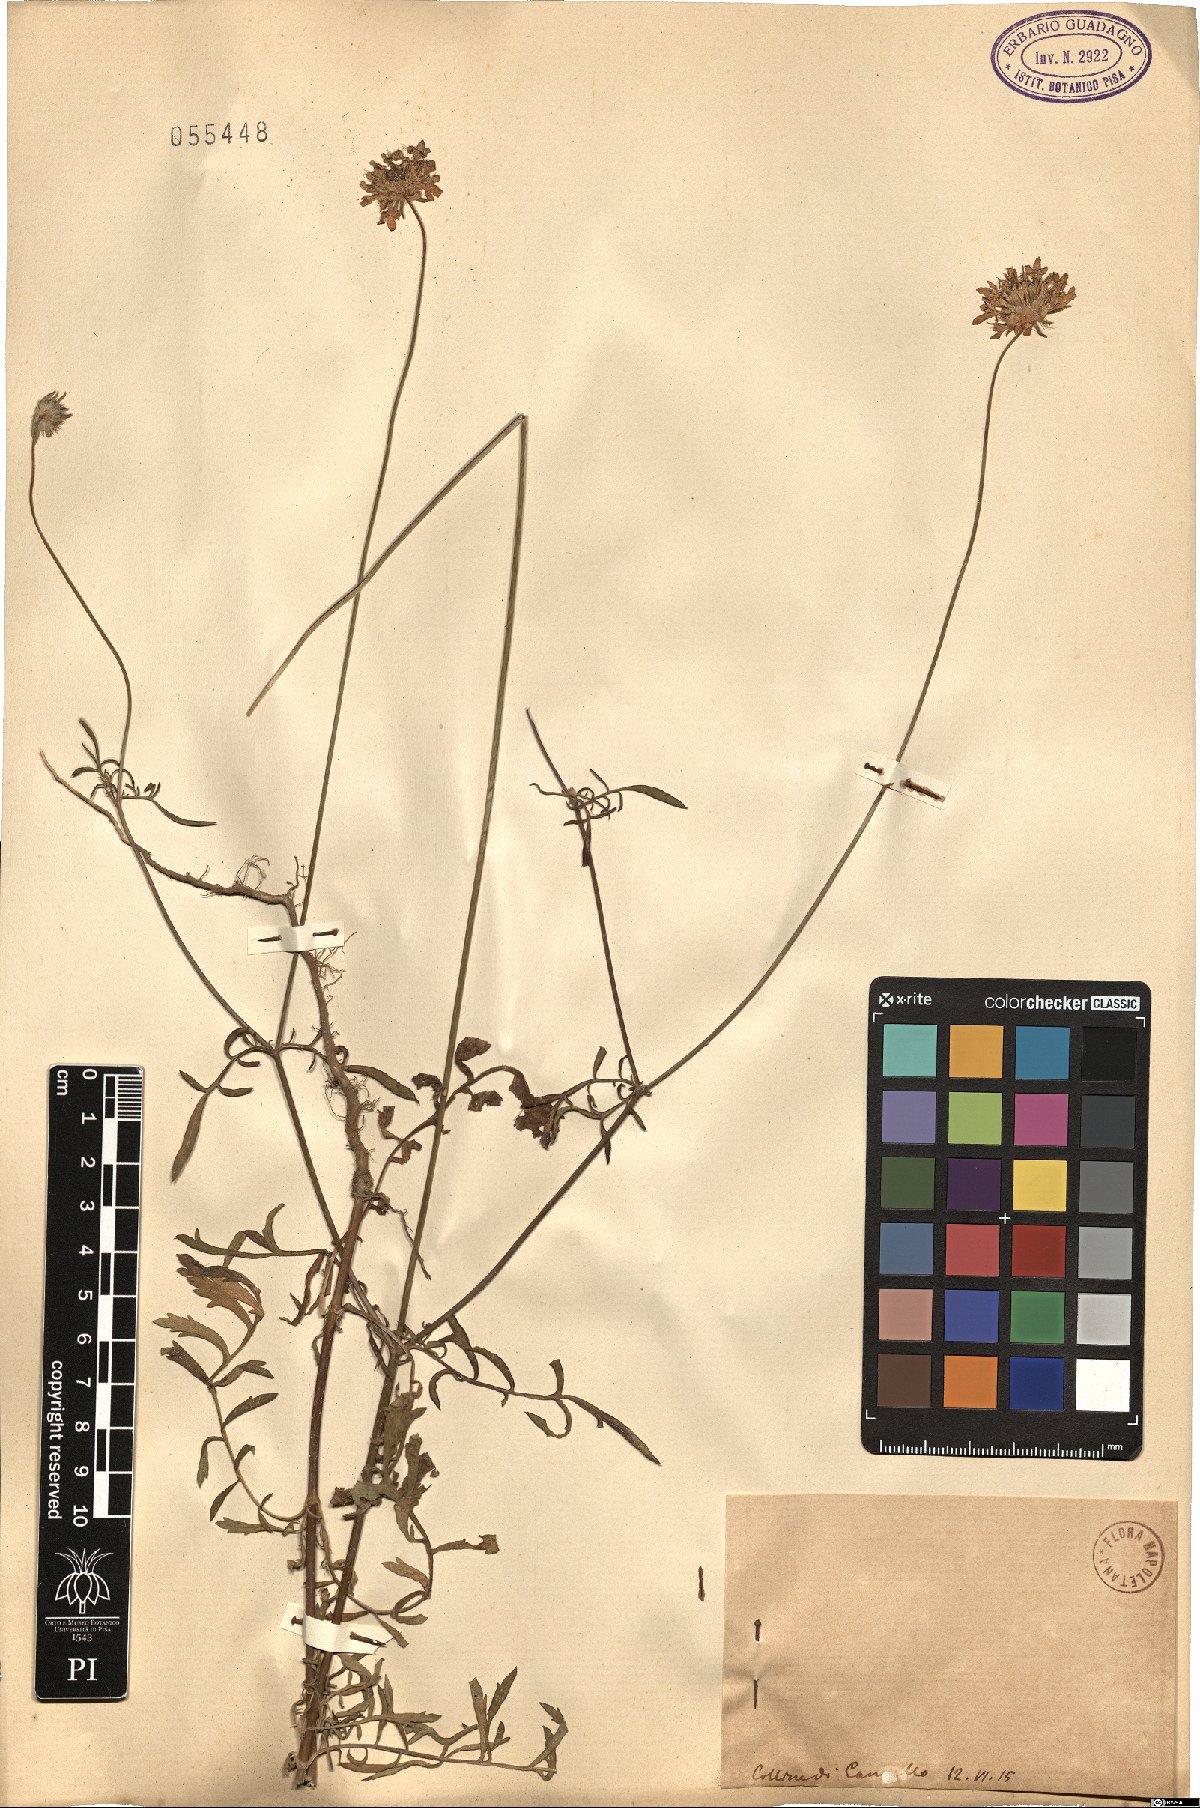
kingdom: Plantae
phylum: Tracheophyta
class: Magnoliopsida
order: Dipsacales
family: Caprifoliaceae
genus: Scabiosa
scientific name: Scabiosa
